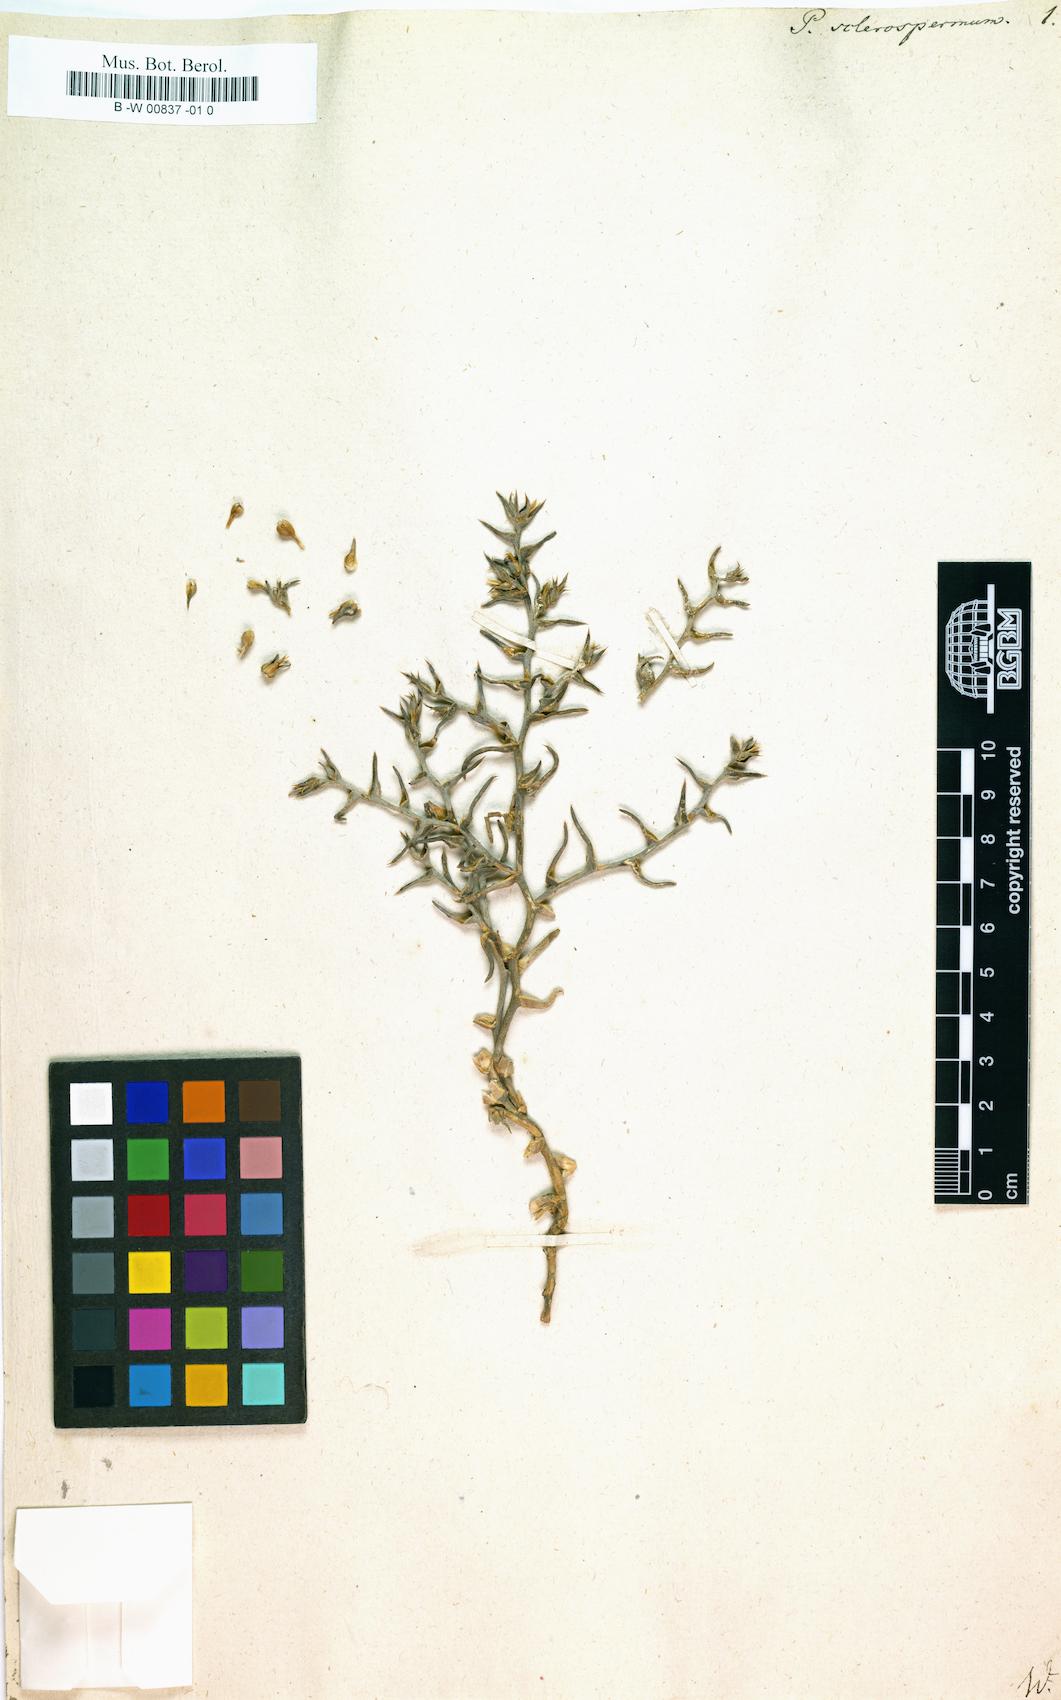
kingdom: Plantae
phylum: Tracheophyta
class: Magnoliopsida
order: Caryophyllales
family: Amaranthaceae
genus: Halimocnemis
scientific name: Halimocnemis sclerosperma
